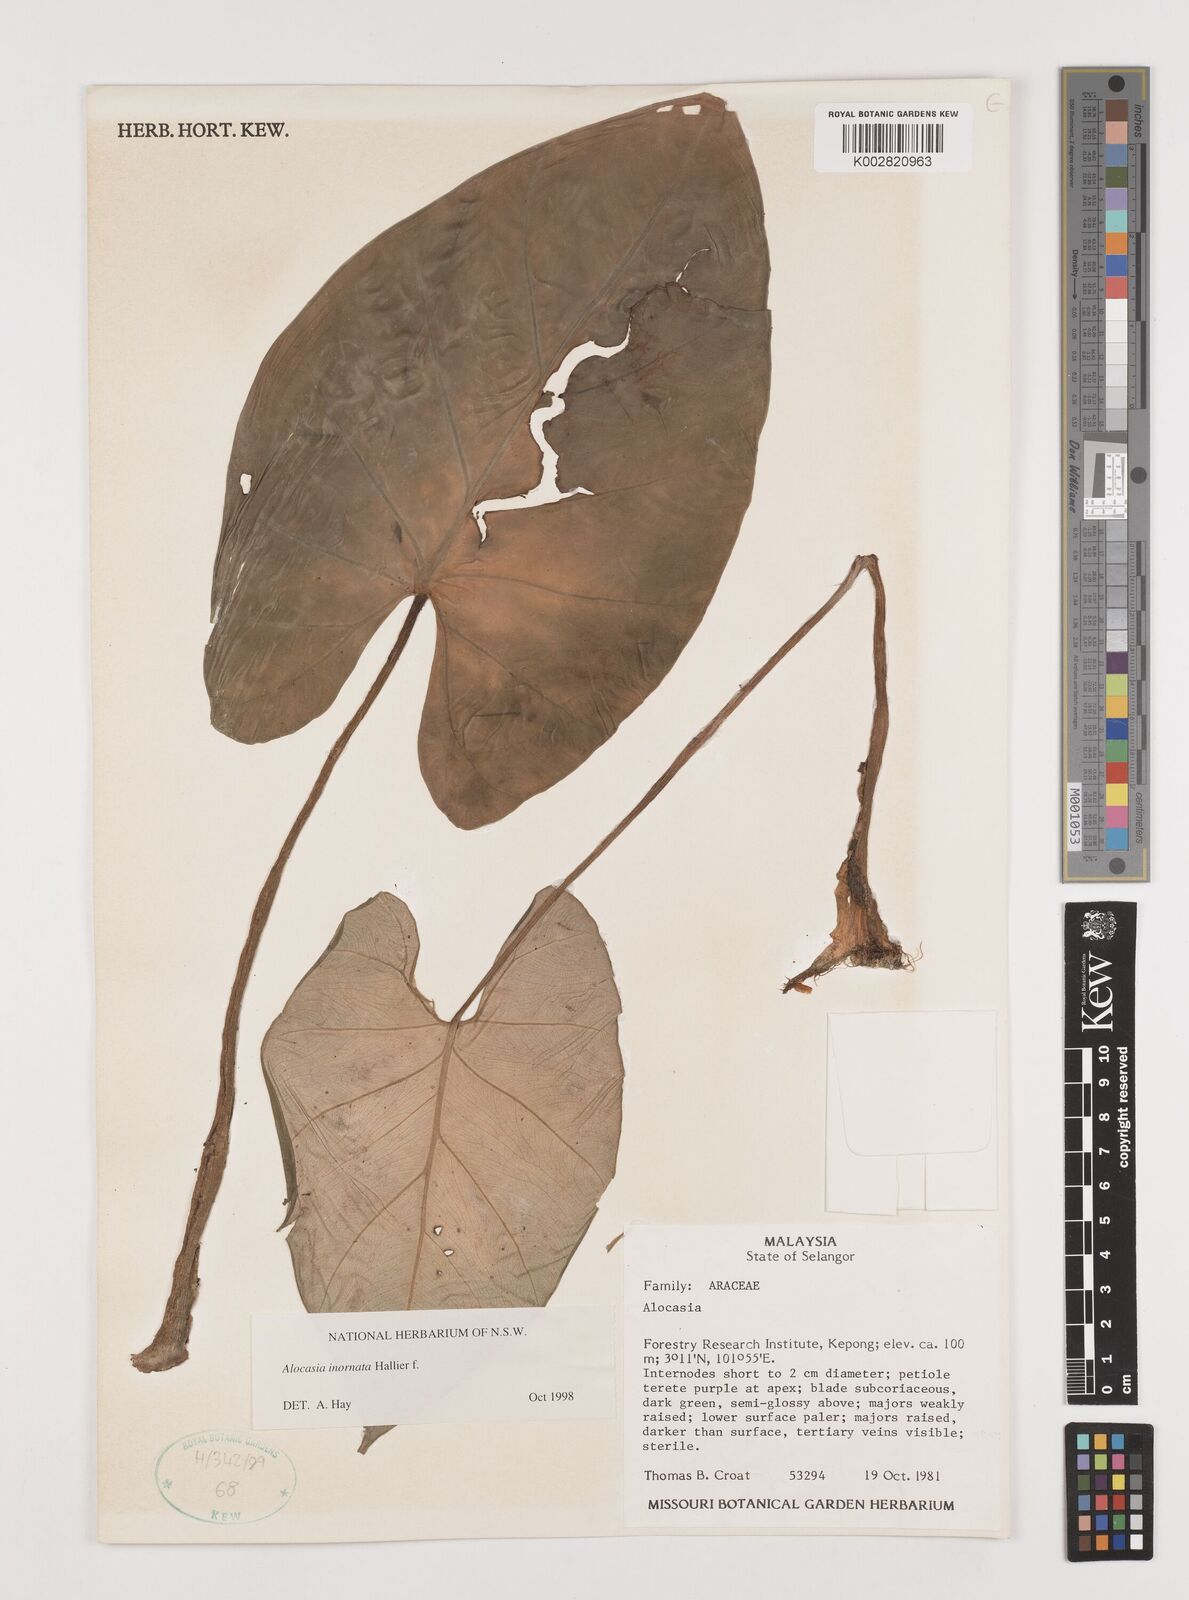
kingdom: Plantae
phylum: Tracheophyta
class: Liliopsida
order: Alismatales
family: Araceae
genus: Alocasia
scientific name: Alocasia inornata
